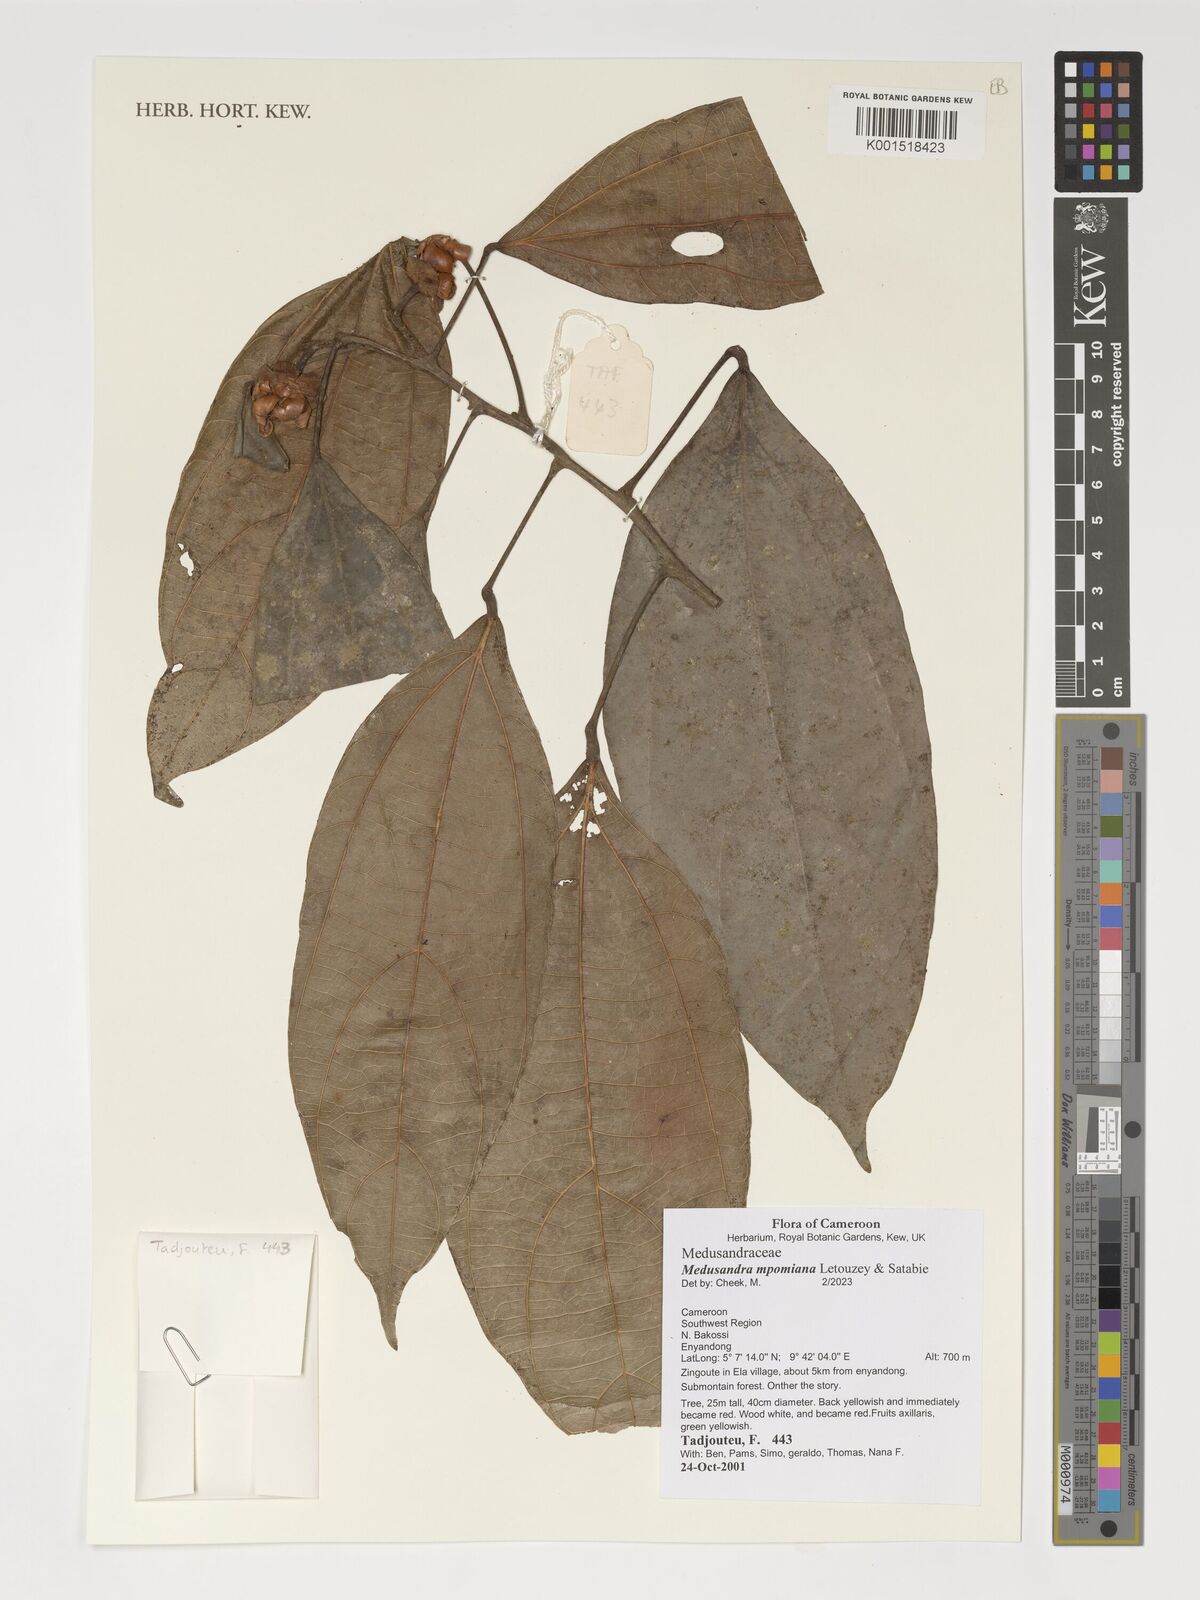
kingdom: Plantae
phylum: Tracheophyta
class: Magnoliopsida
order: Saxifragales
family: Peridiscaceae
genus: Medusandra
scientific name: Medusandra mpomiana
